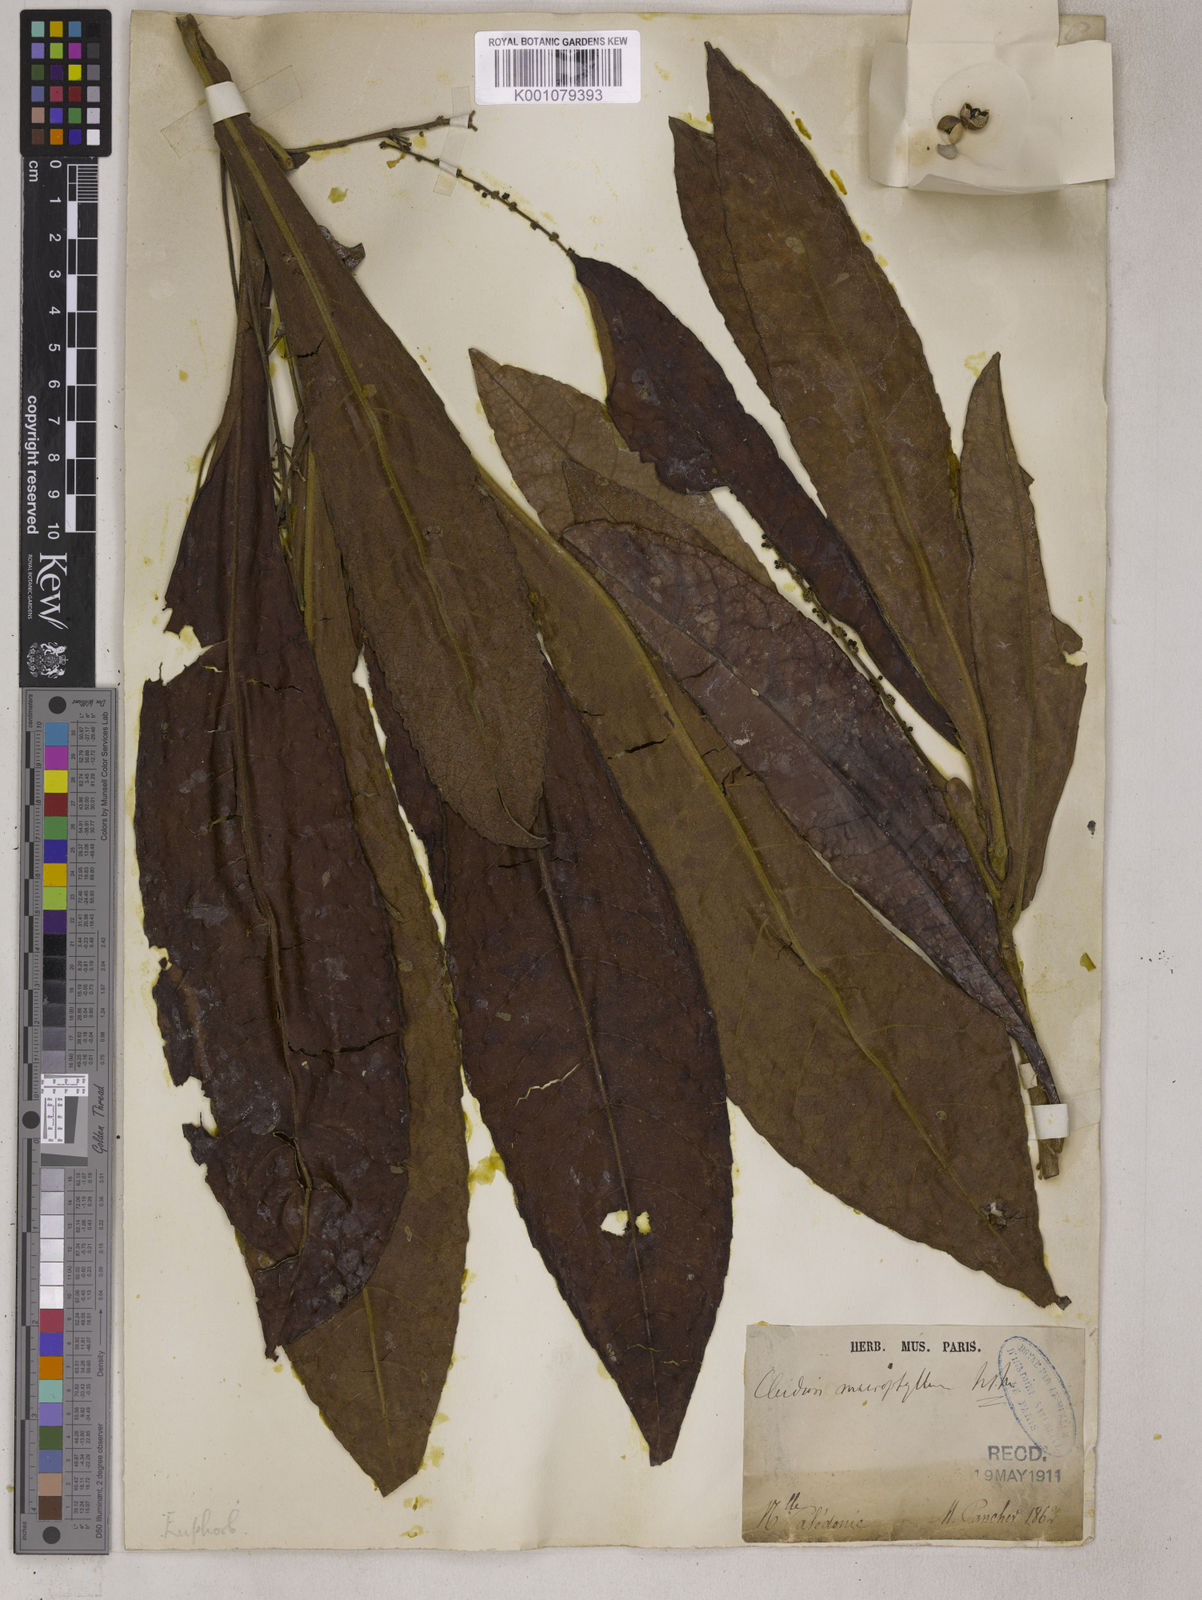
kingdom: Plantae
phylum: Tracheophyta
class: Magnoliopsida
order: Malpighiales
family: Euphorbiaceae
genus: Cleidion
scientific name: Cleidion macrophyllum
